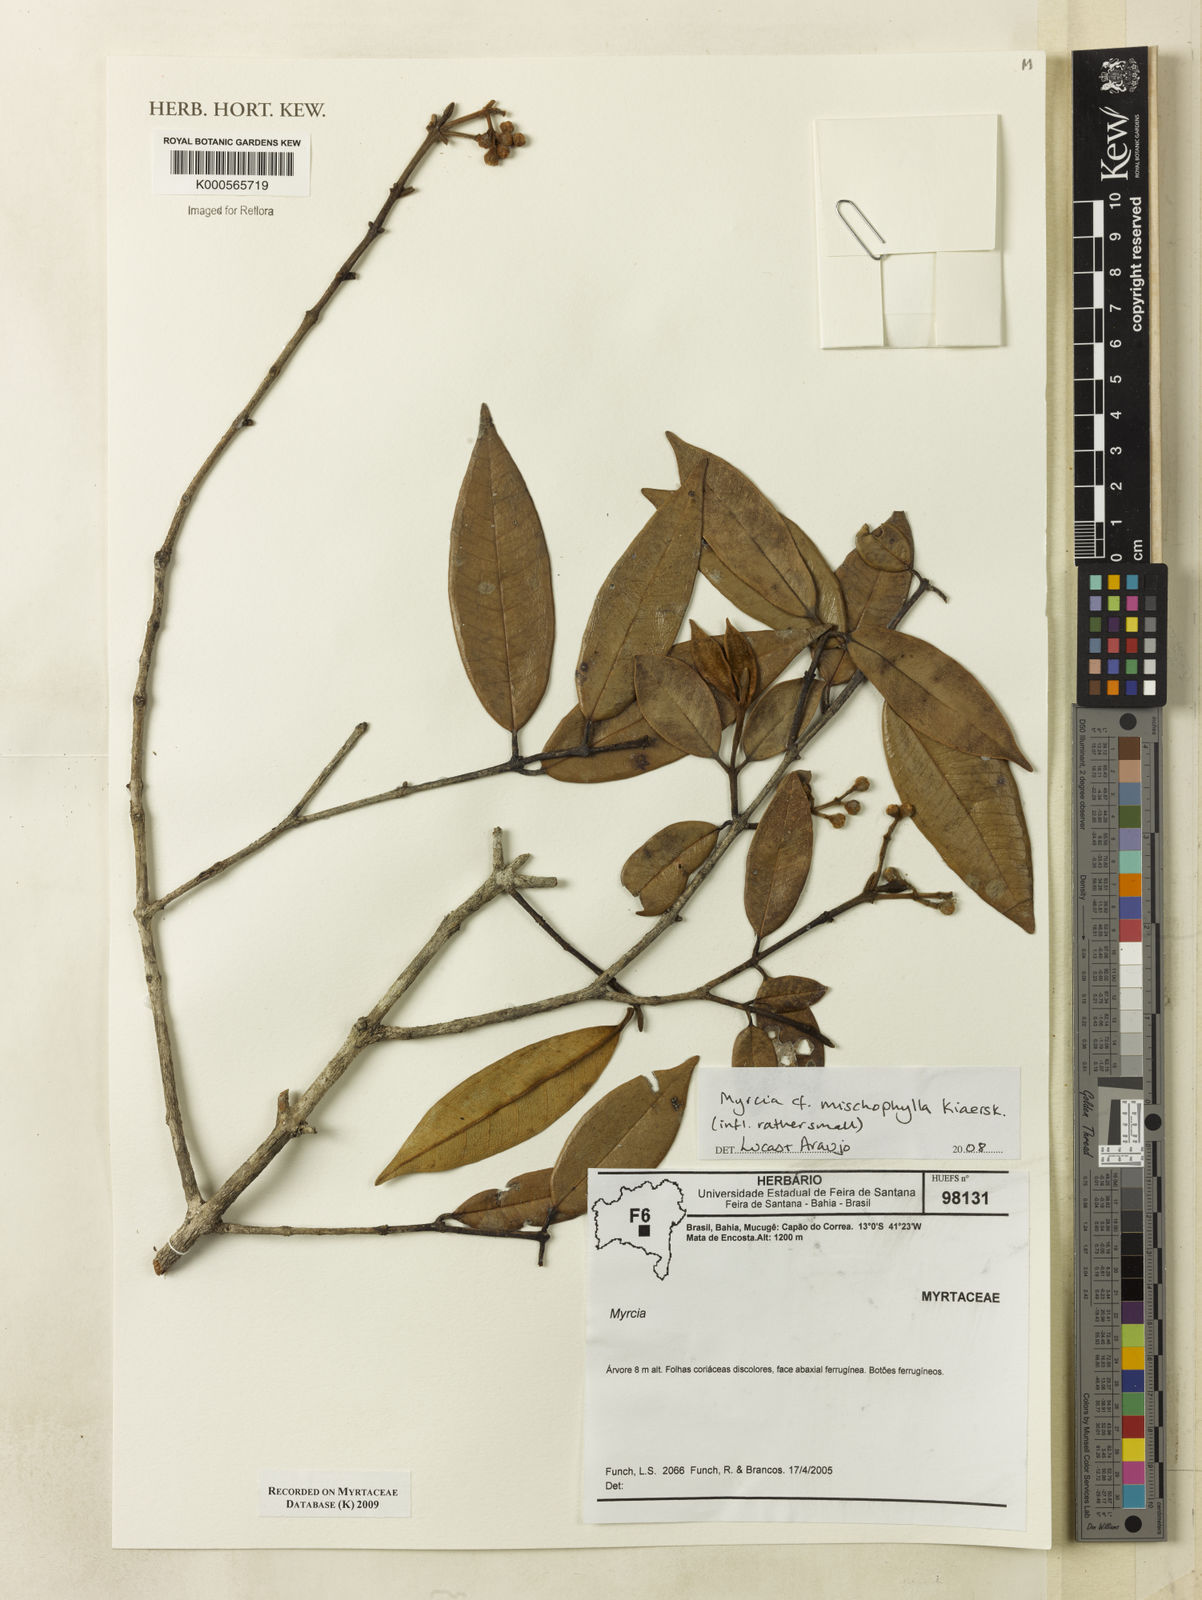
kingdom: Plantae
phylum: Tracheophyta
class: Magnoliopsida
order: Myrtales
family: Myrtaceae
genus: Myrcia
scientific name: Myrcia mischophylla
